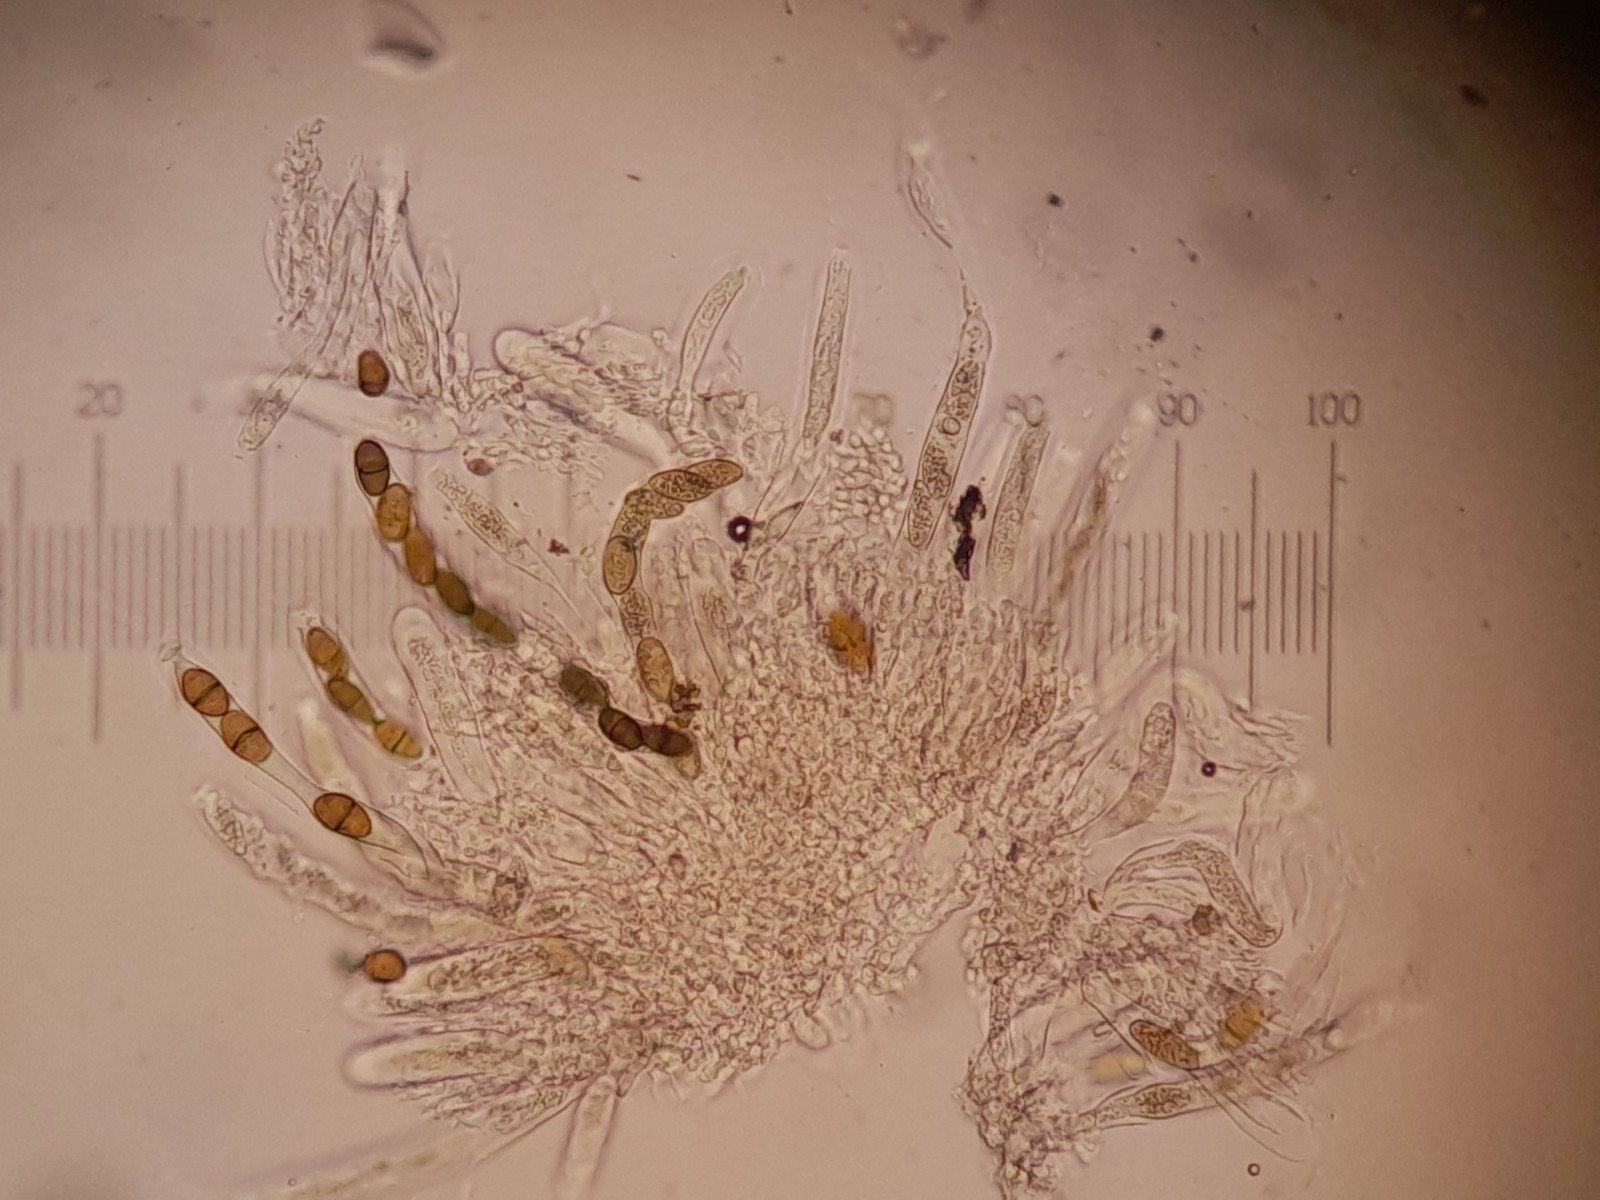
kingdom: Plantae
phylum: Bryophyta
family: Dothideomycetes
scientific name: Dothideomycetes
